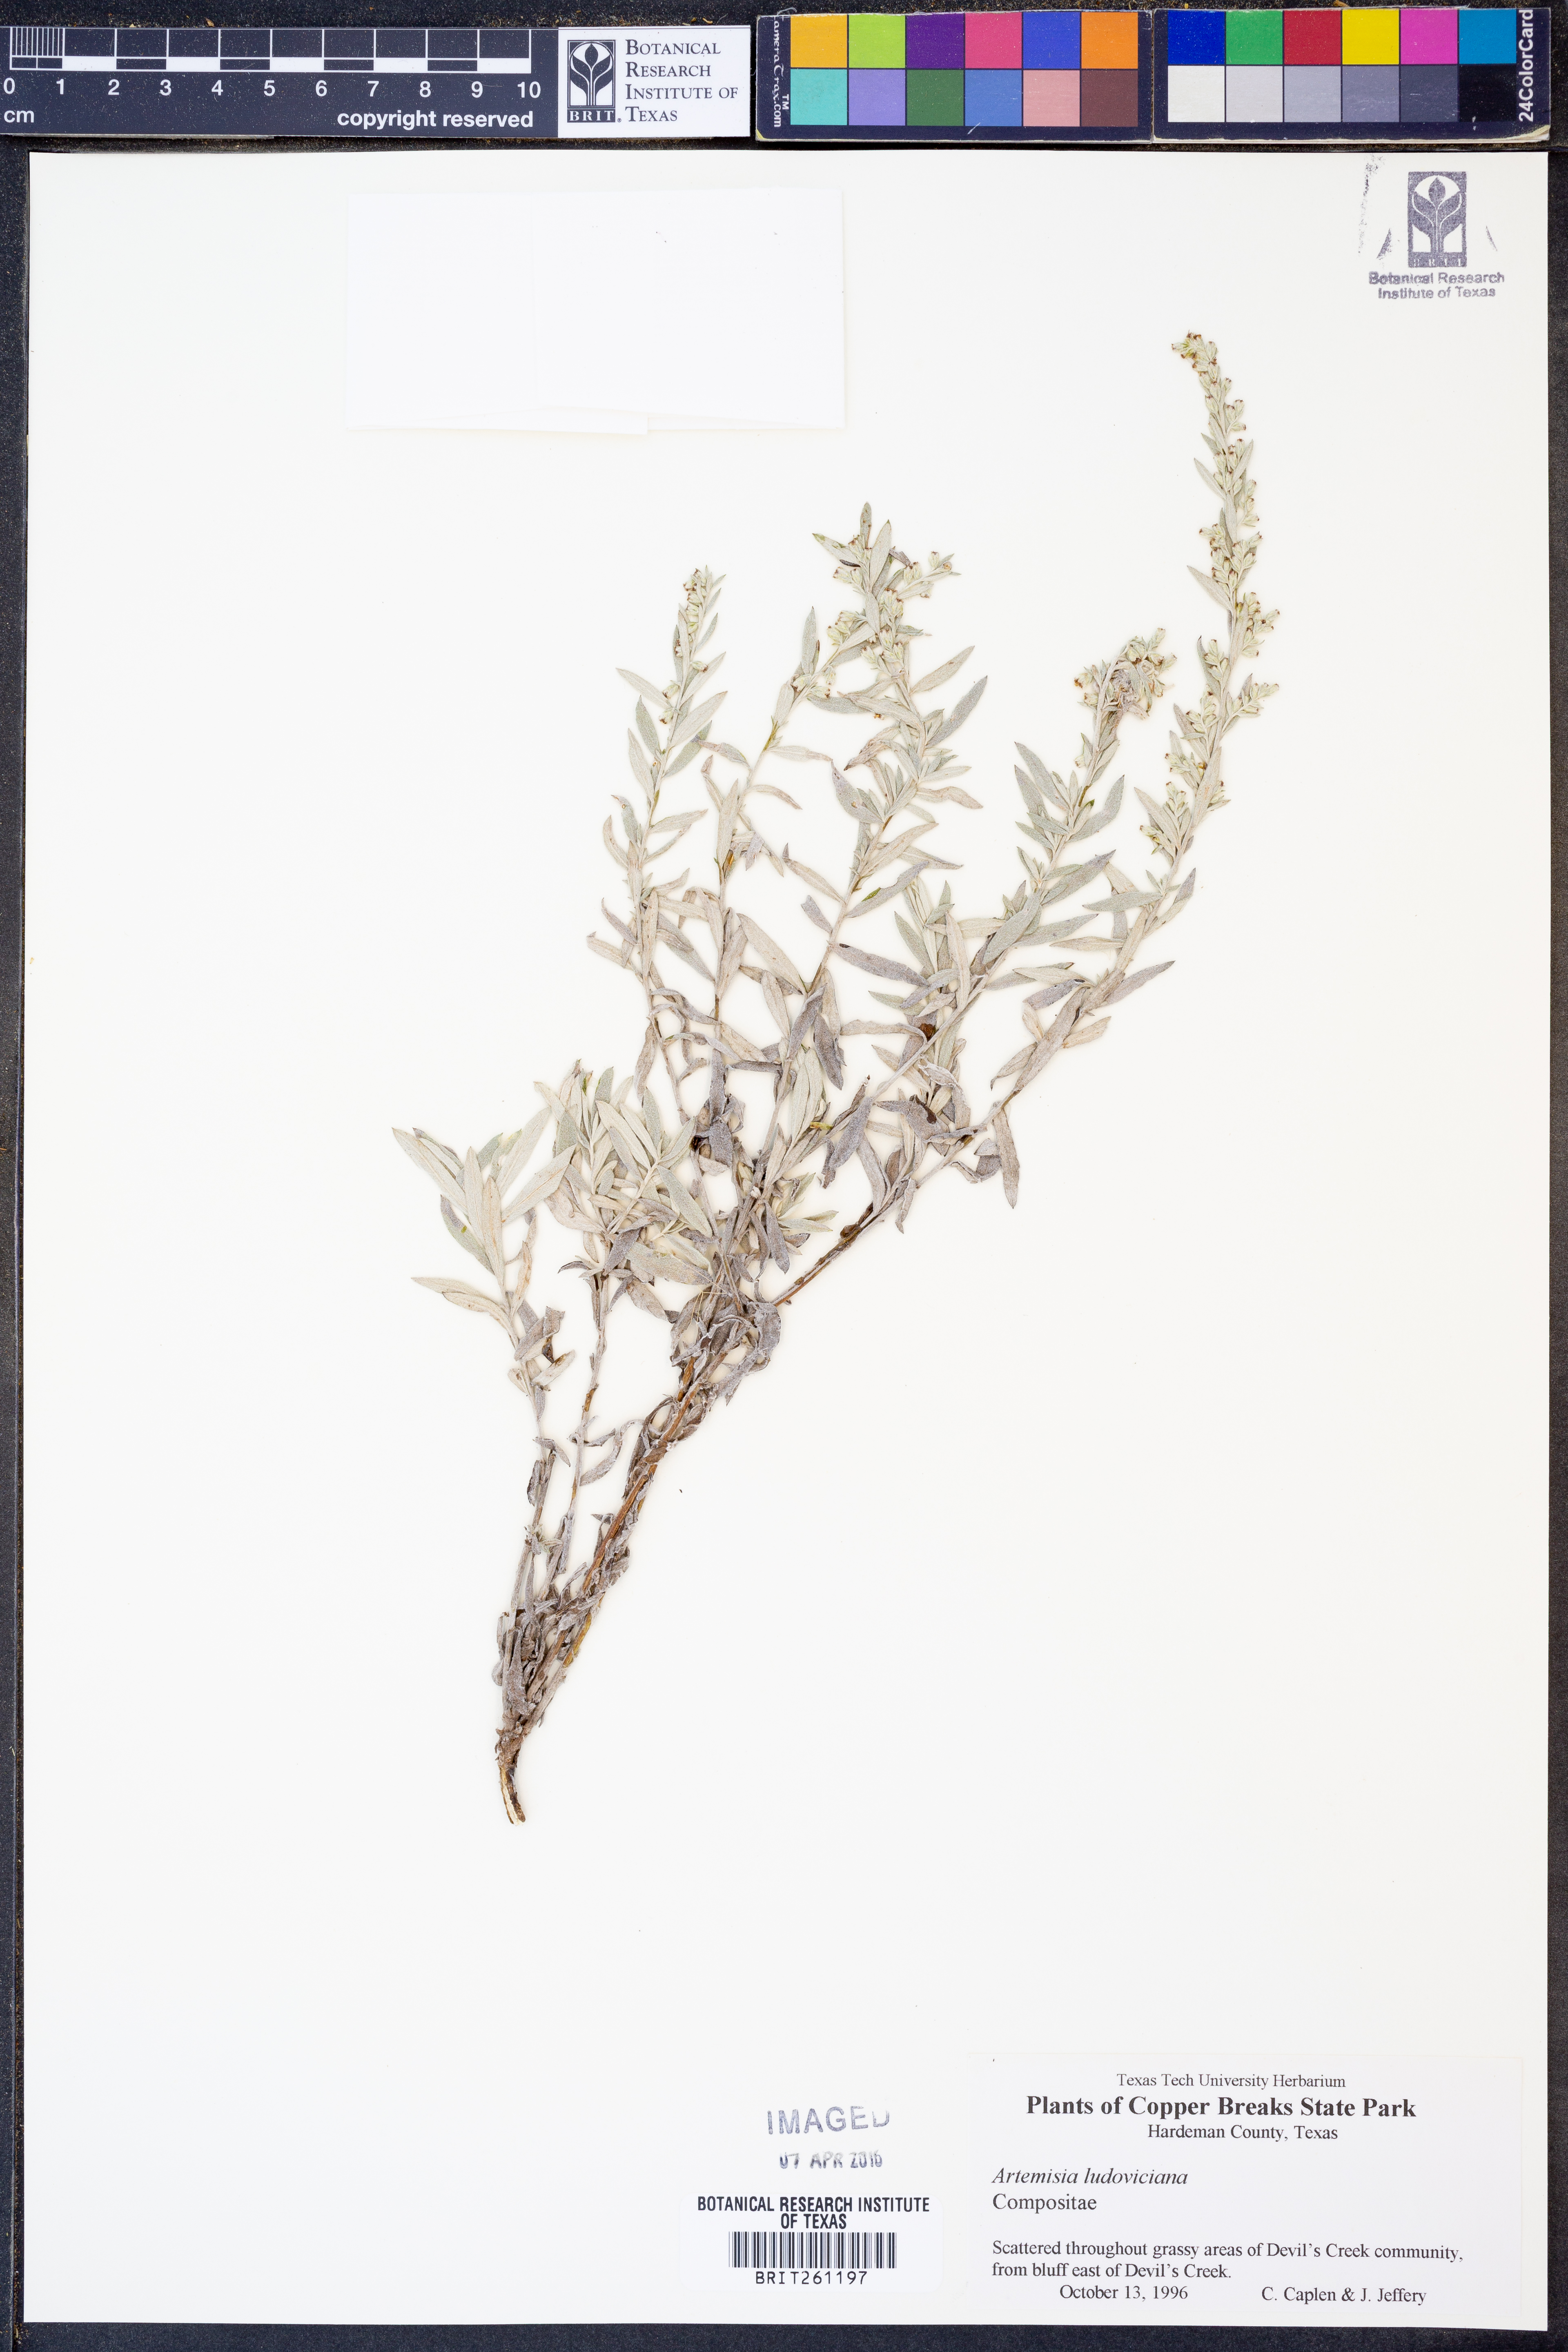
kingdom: Plantae
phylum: Tracheophyta
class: Magnoliopsida
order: Asterales
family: Asteraceae
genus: Artemisia
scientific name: Artemisia ludoviciana
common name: Western mugwort
